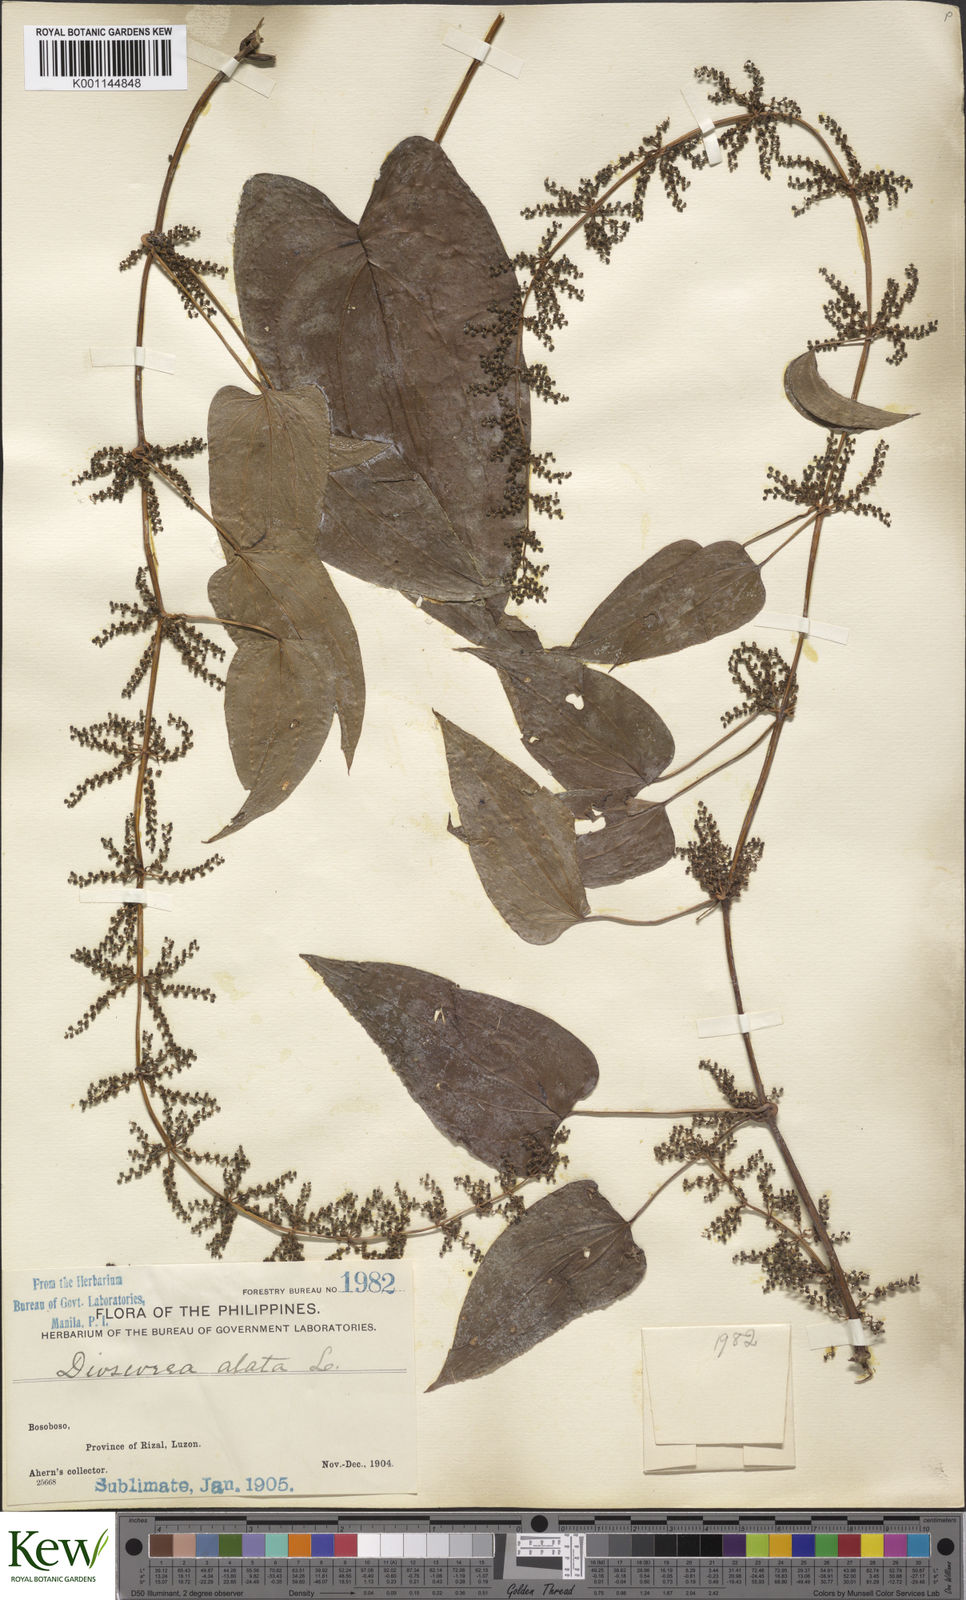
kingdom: Plantae
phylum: Tracheophyta
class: Liliopsida
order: Dioscoreales
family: Dioscoreaceae
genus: Dioscorea
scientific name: Dioscorea alata
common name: Water yam
